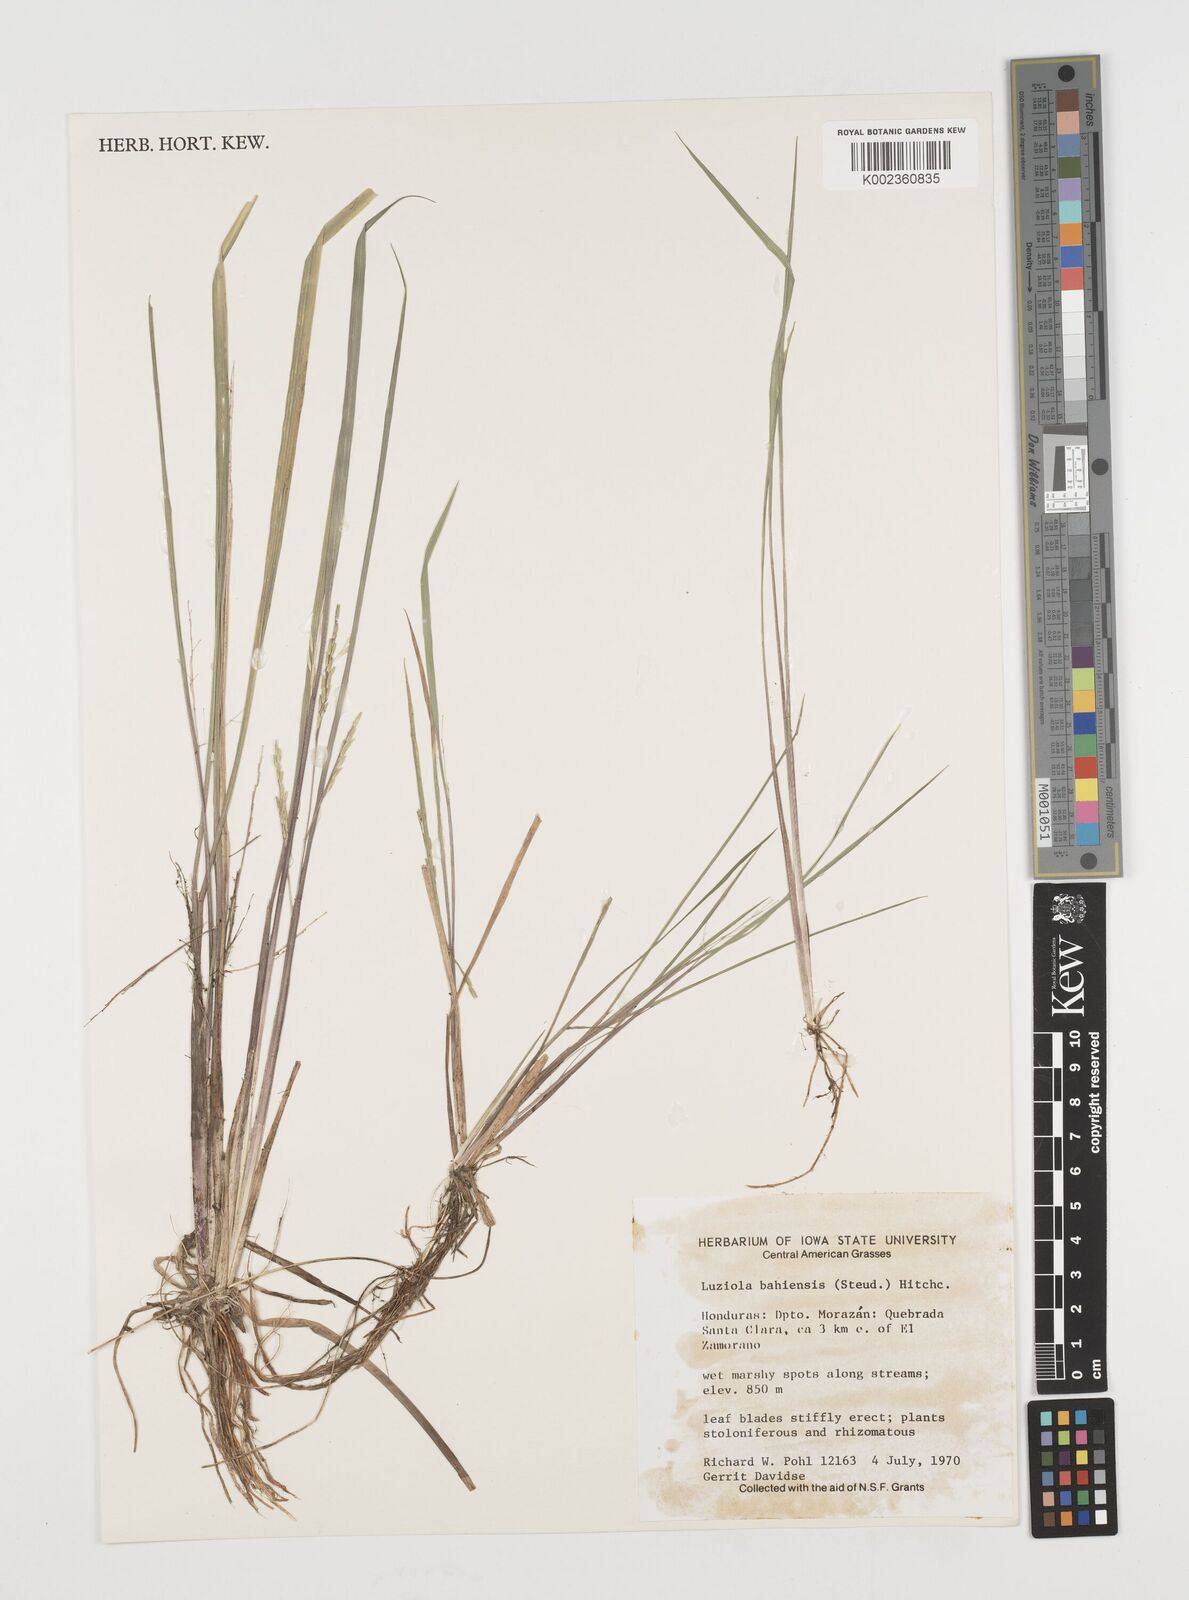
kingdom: Plantae
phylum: Tracheophyta
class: Liliopsida
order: Poales
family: Poaceae
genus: Luziola
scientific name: Luziola bahiensis
